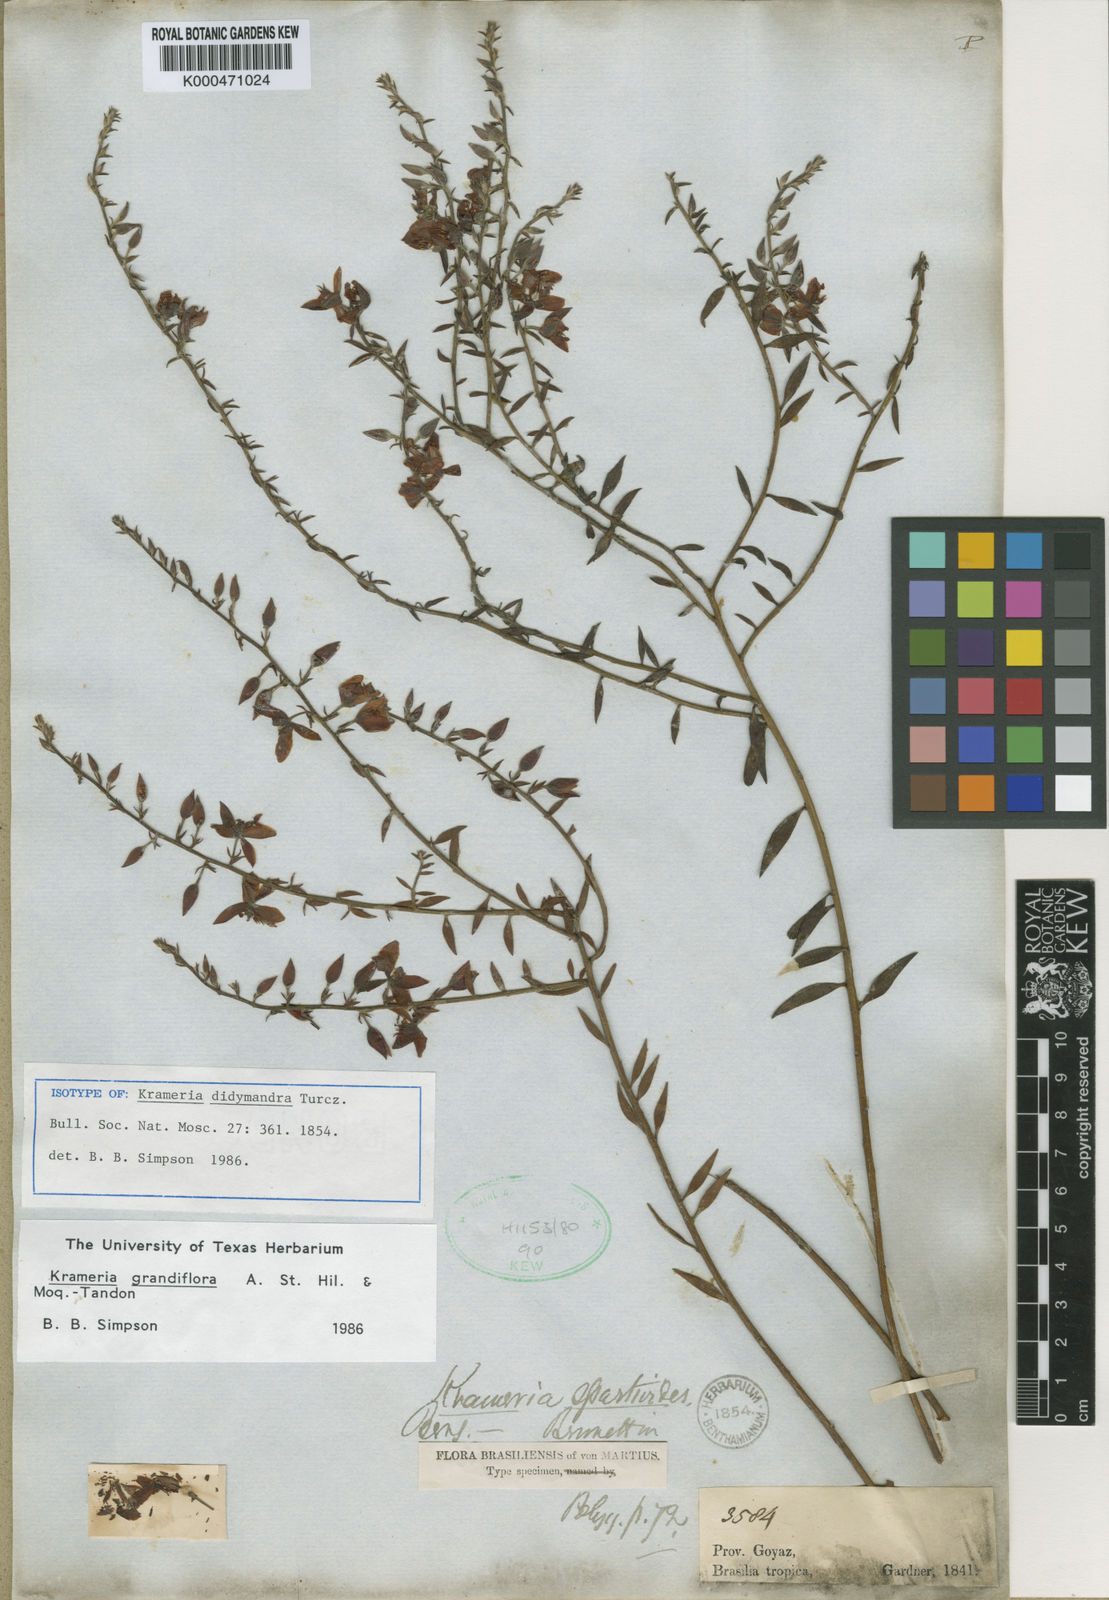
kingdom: Plantae
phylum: Tracheophyta
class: Magnoliopsida
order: Zygophyllales
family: Krameriaceae
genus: Krameria
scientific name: Krameria grandiflora
